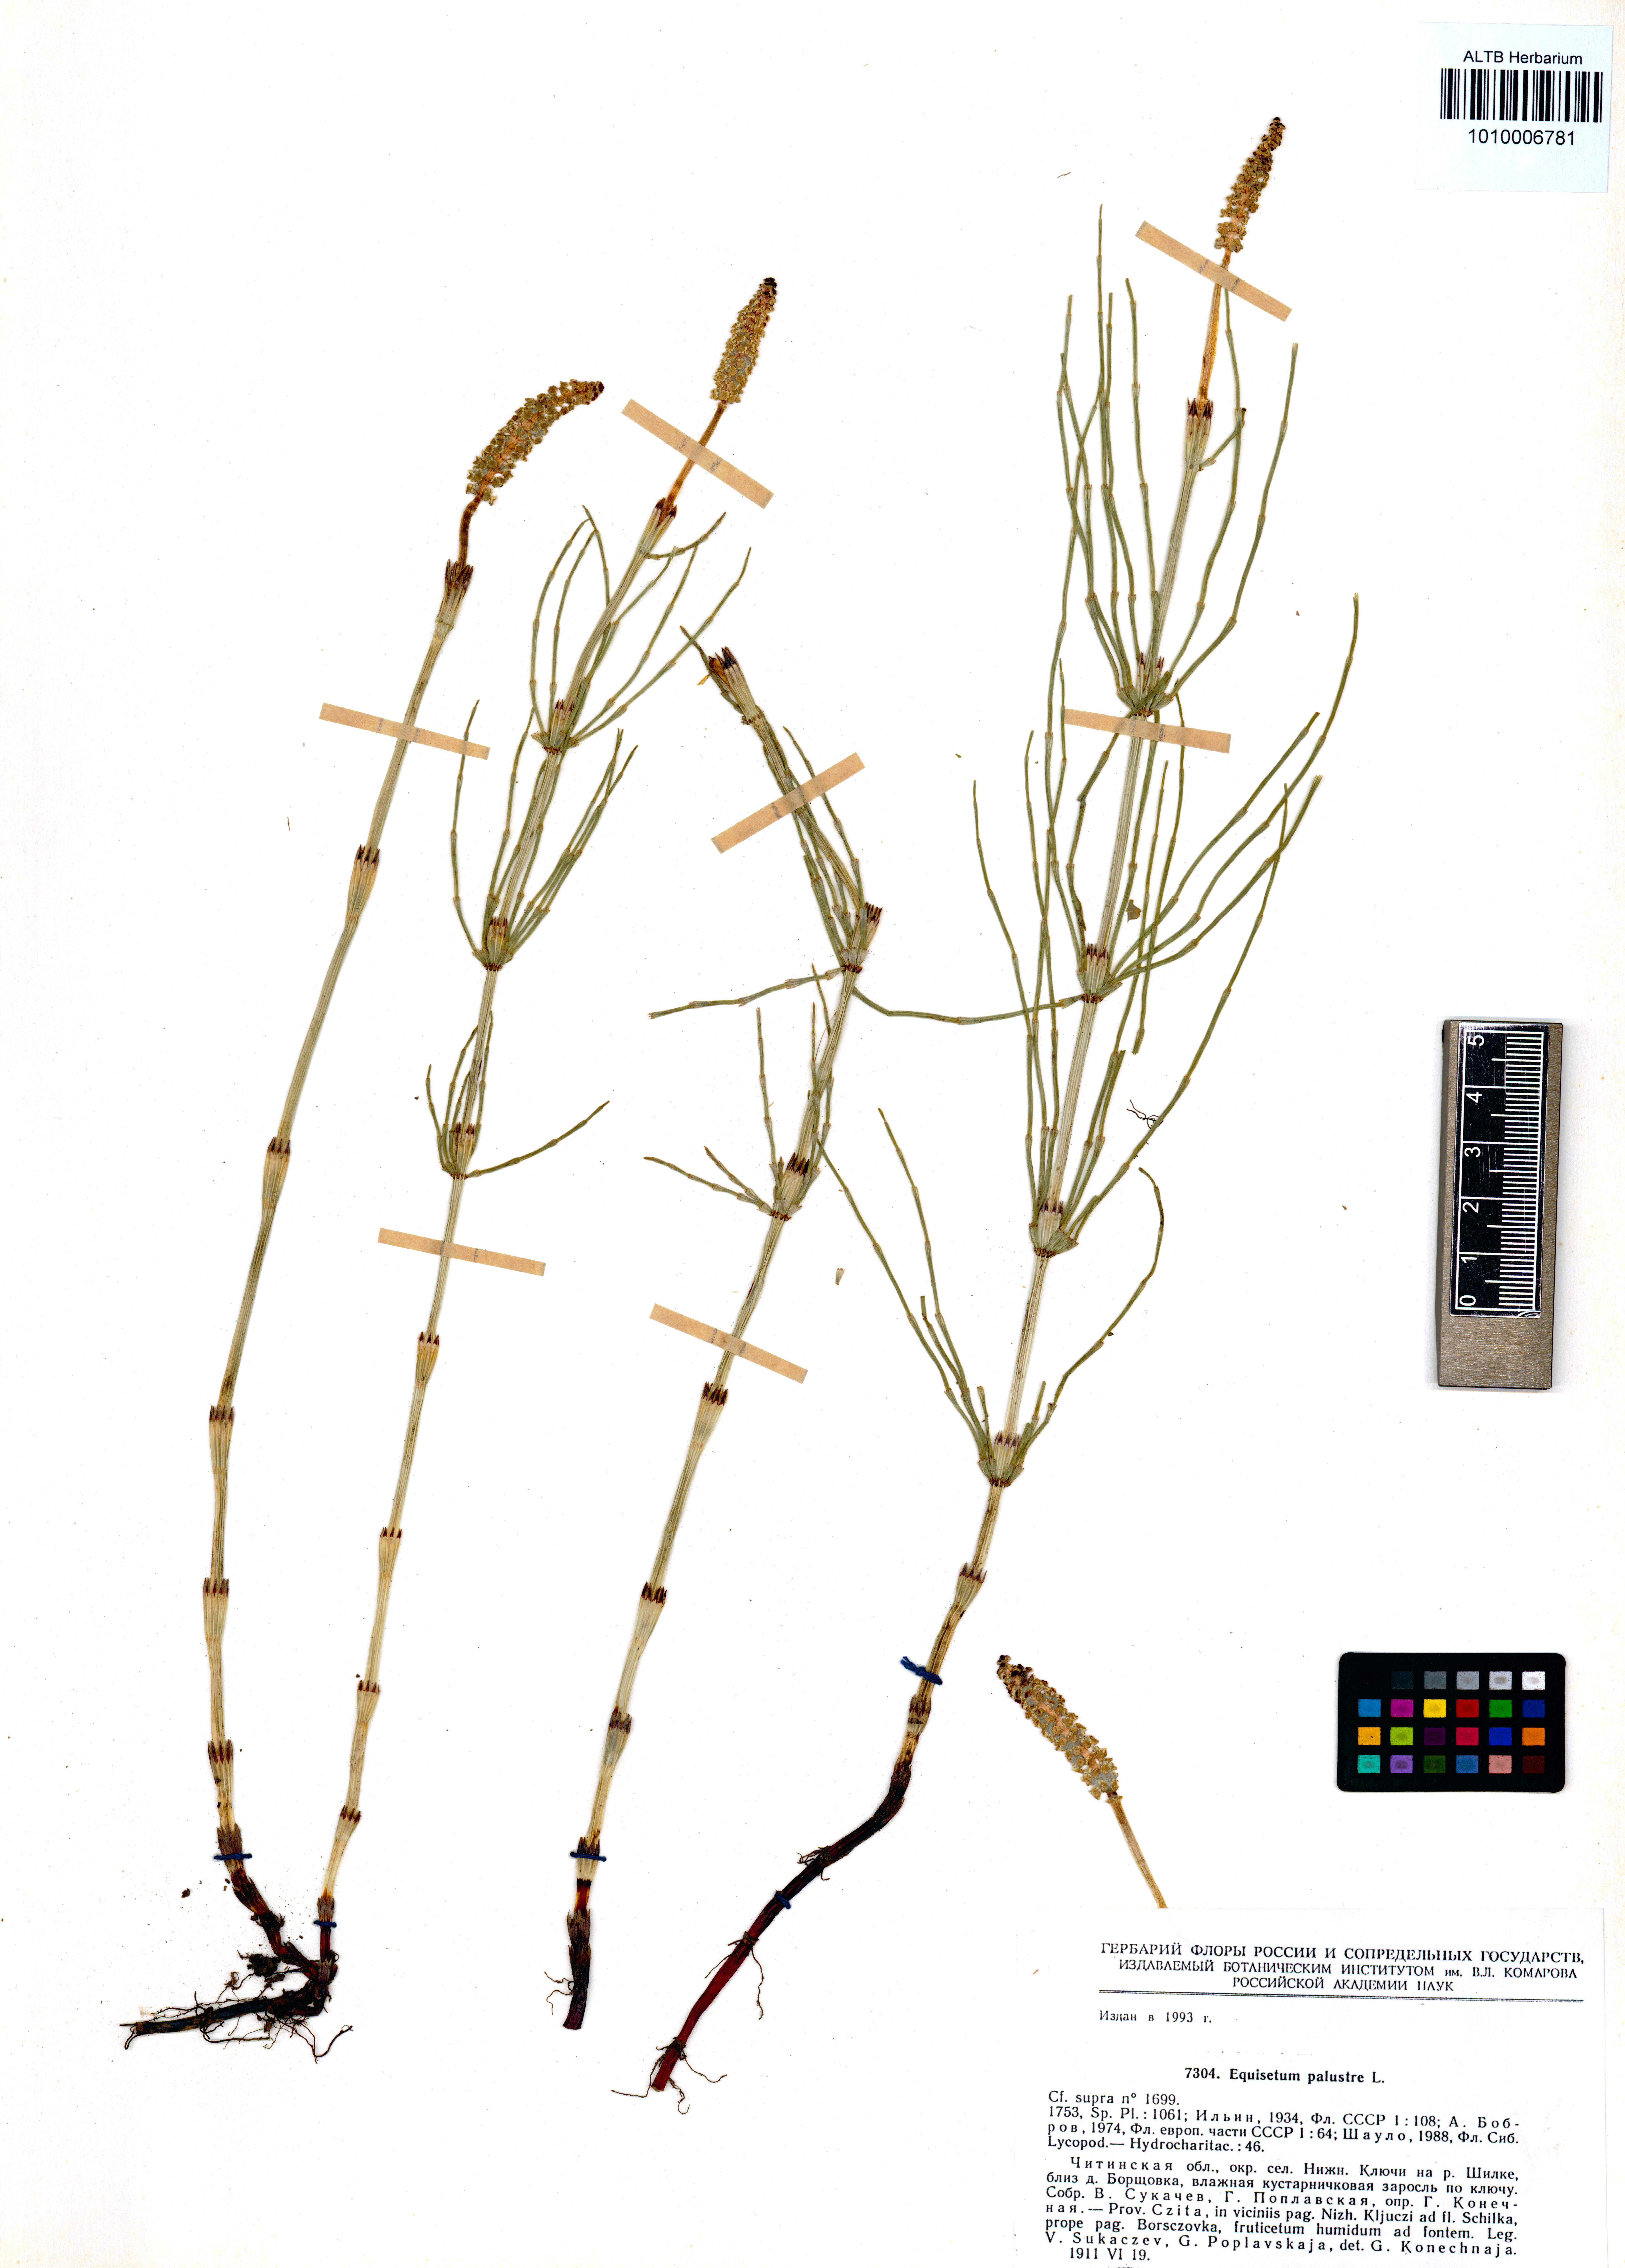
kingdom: Plantae
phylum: Tracheophyta
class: Polypodiopsida
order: Equisetales
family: Equisetaceae
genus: Equisetum
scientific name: Equisetum palustre
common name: Marsh horsetail
